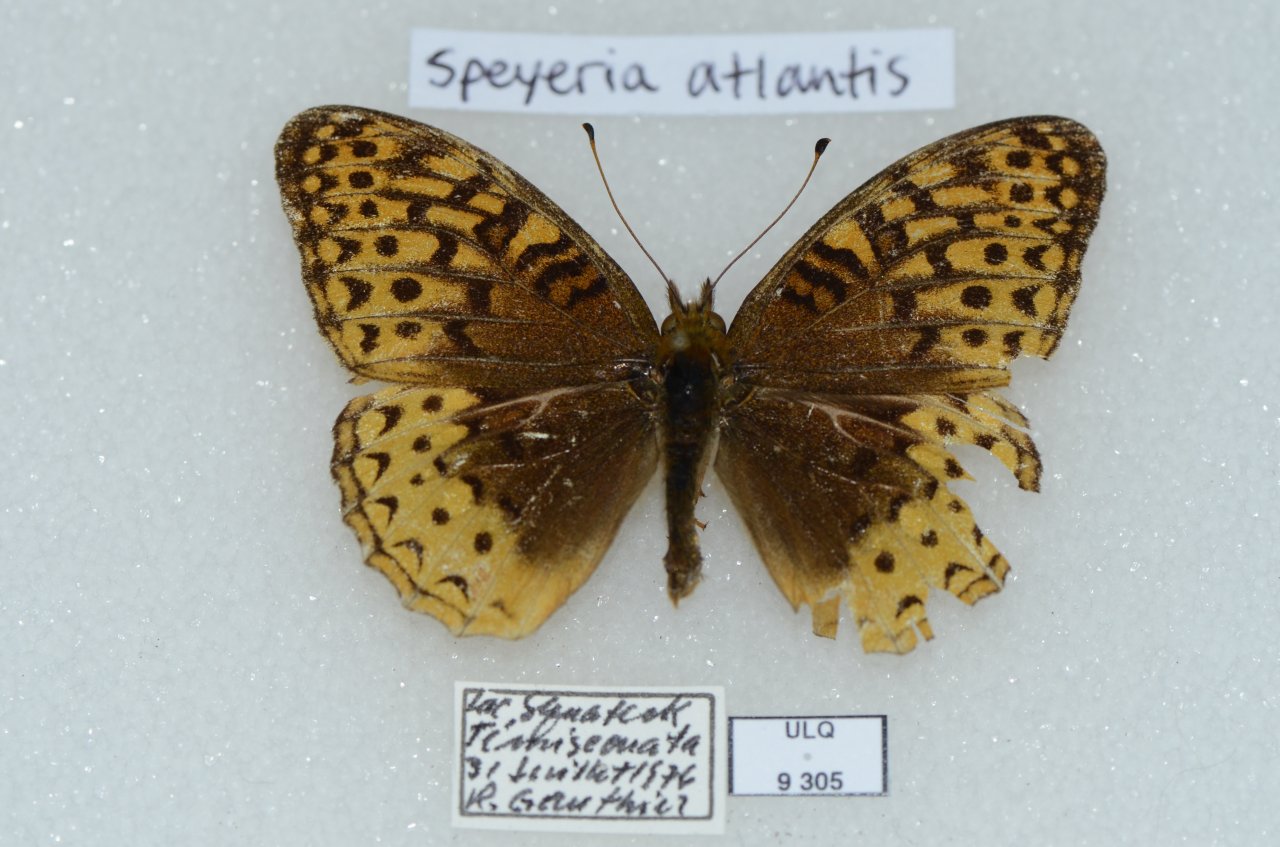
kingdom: Animalia
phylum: Arthropoda
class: Insecta
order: Lepidoptera
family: Nymphalidae
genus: Speyeria
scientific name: Speyeria cybele
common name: Great Spangled Fritillary
